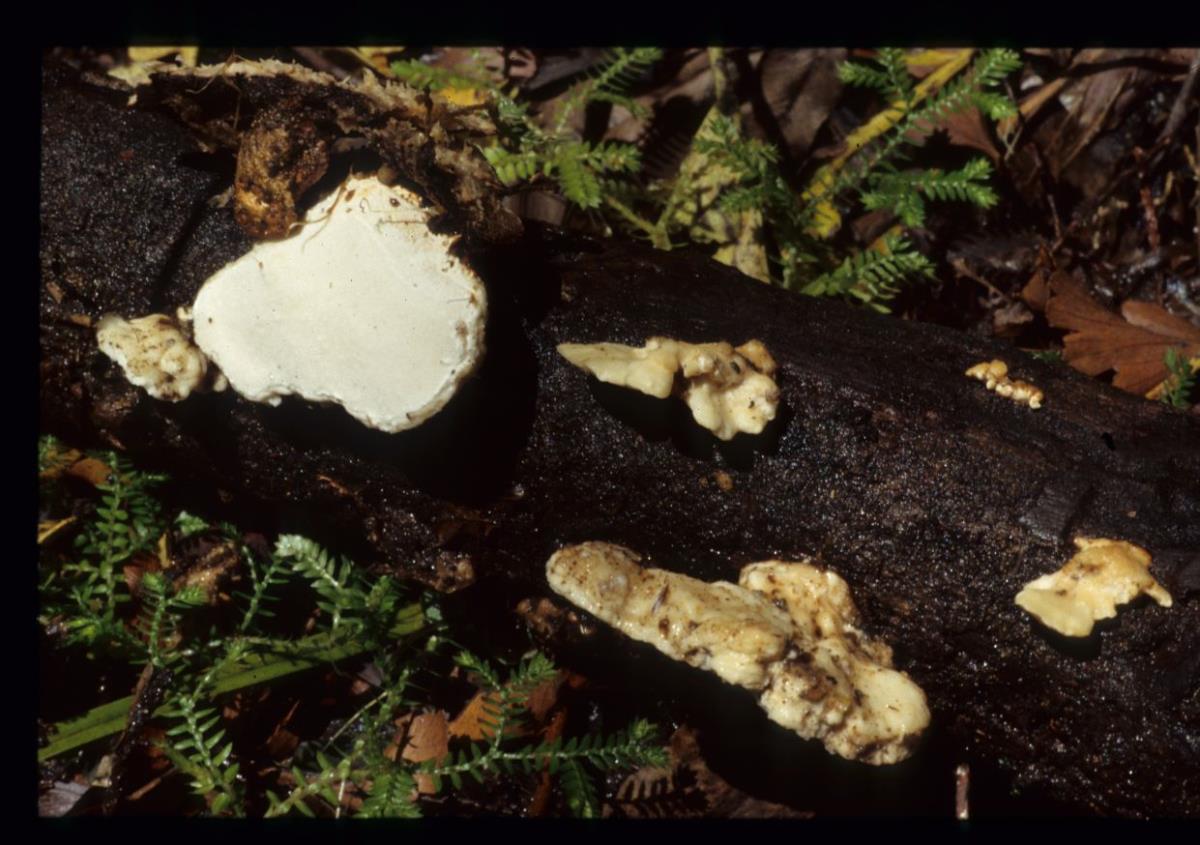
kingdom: Fungi
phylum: Basidiomycota
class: Agaricomycetes
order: Polyporales
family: Irpicaceae
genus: Gloeoporus
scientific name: Gloeoporus phlebophorus
